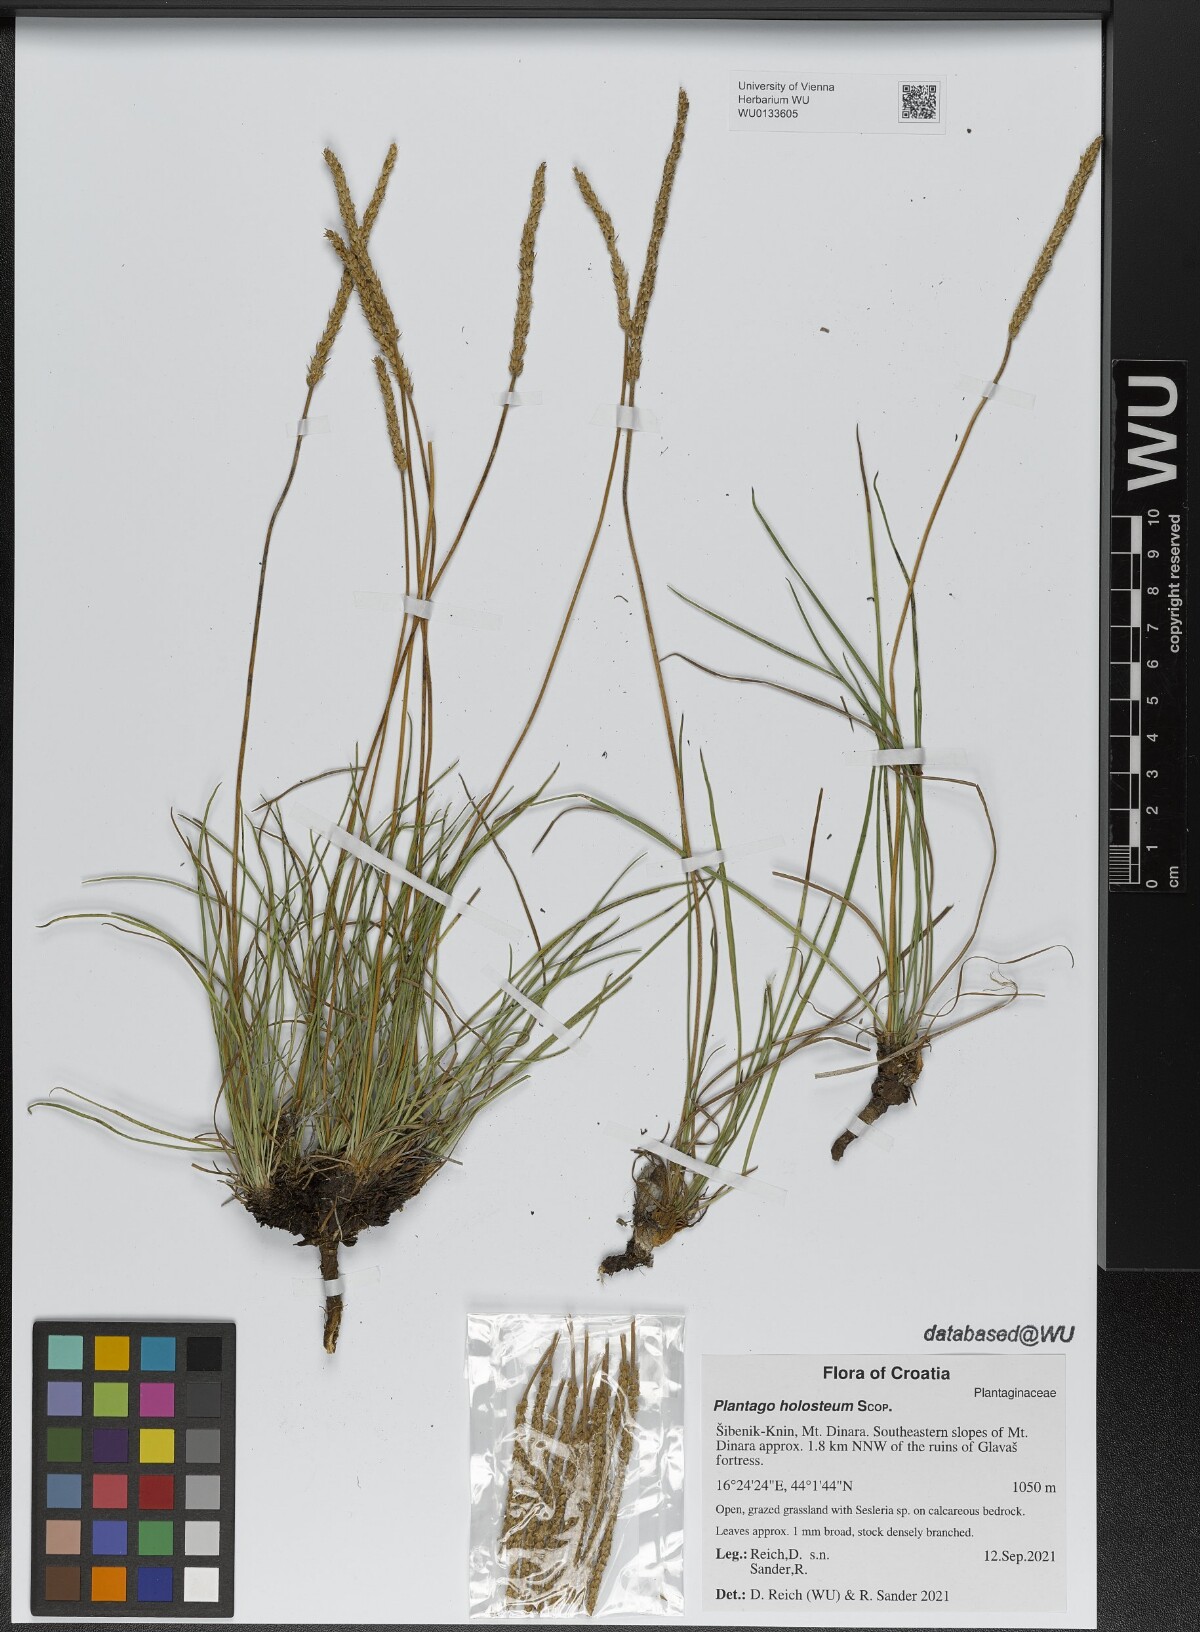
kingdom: Plantae
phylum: Tracheophyta
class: Magnoliopsida
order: Lamiales
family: Plantaginaceae
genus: Plantago
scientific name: Plantago subulata
